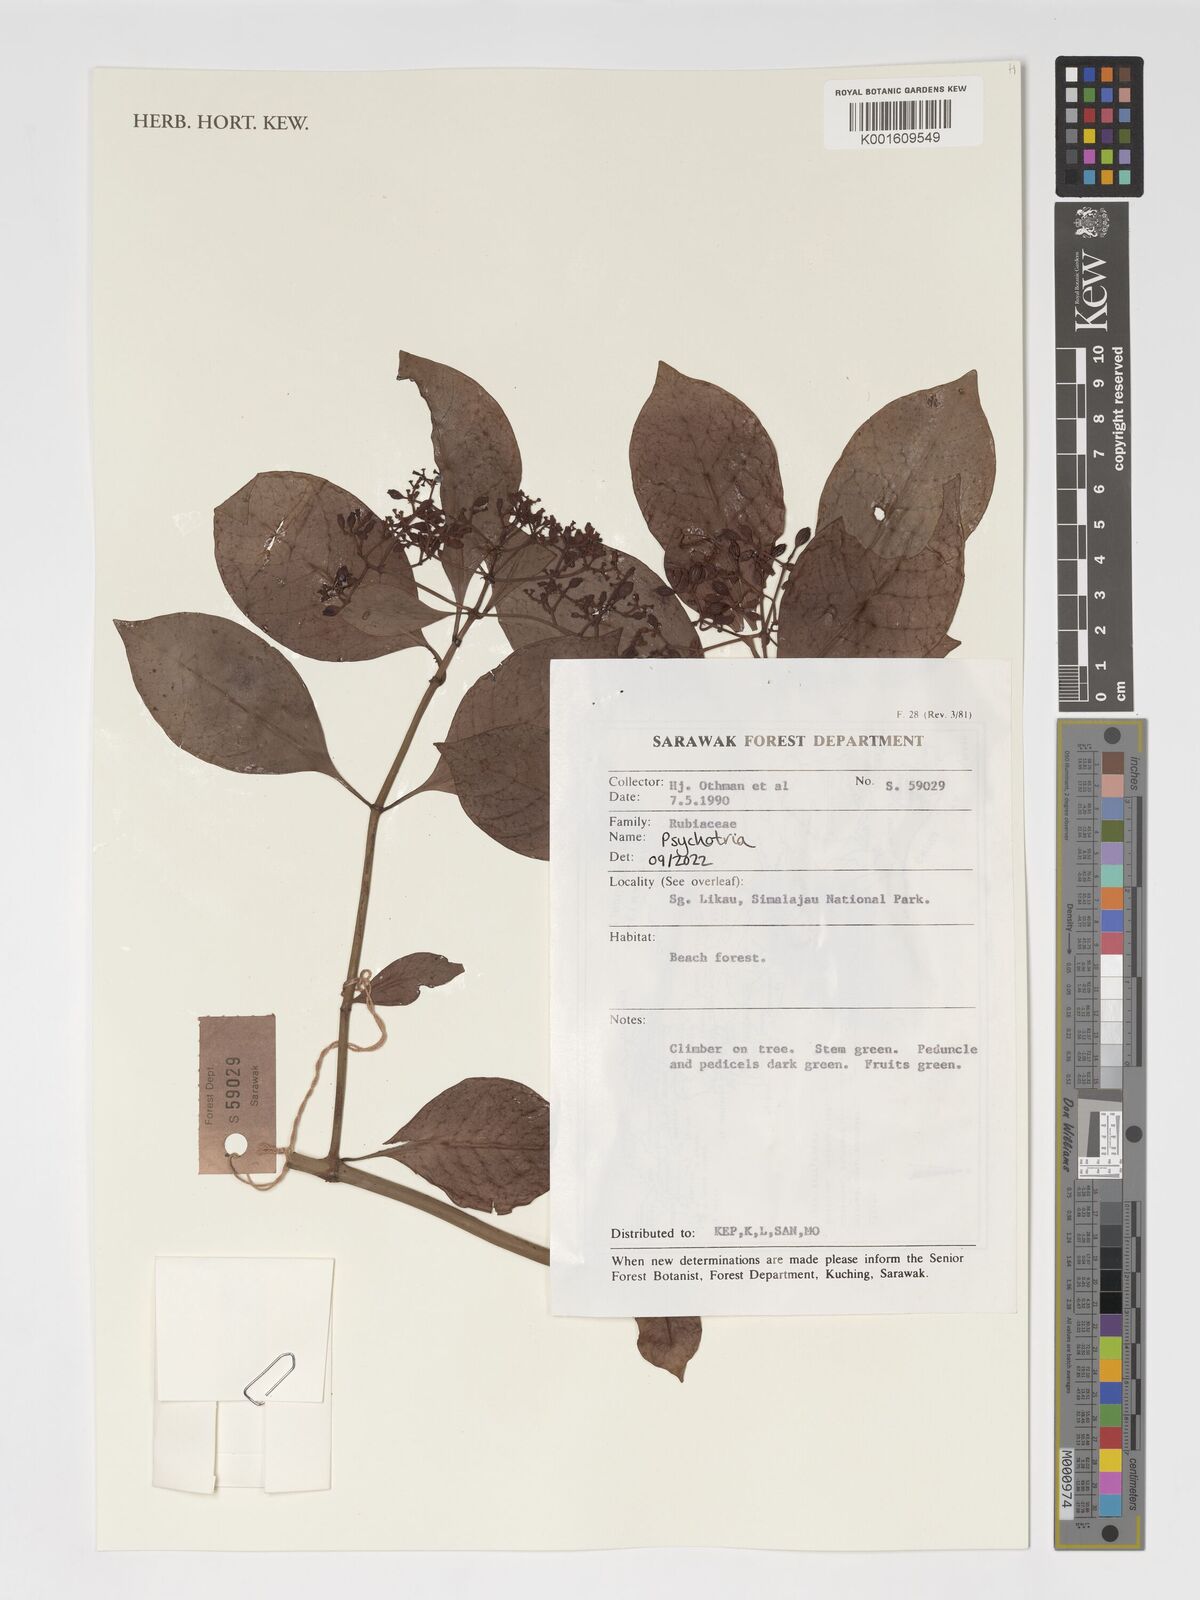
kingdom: Plantae
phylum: Tracheophyta
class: Magnoliopsida
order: Gentianales
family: Rubiaceae
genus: Psychotria
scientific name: Psychotria
